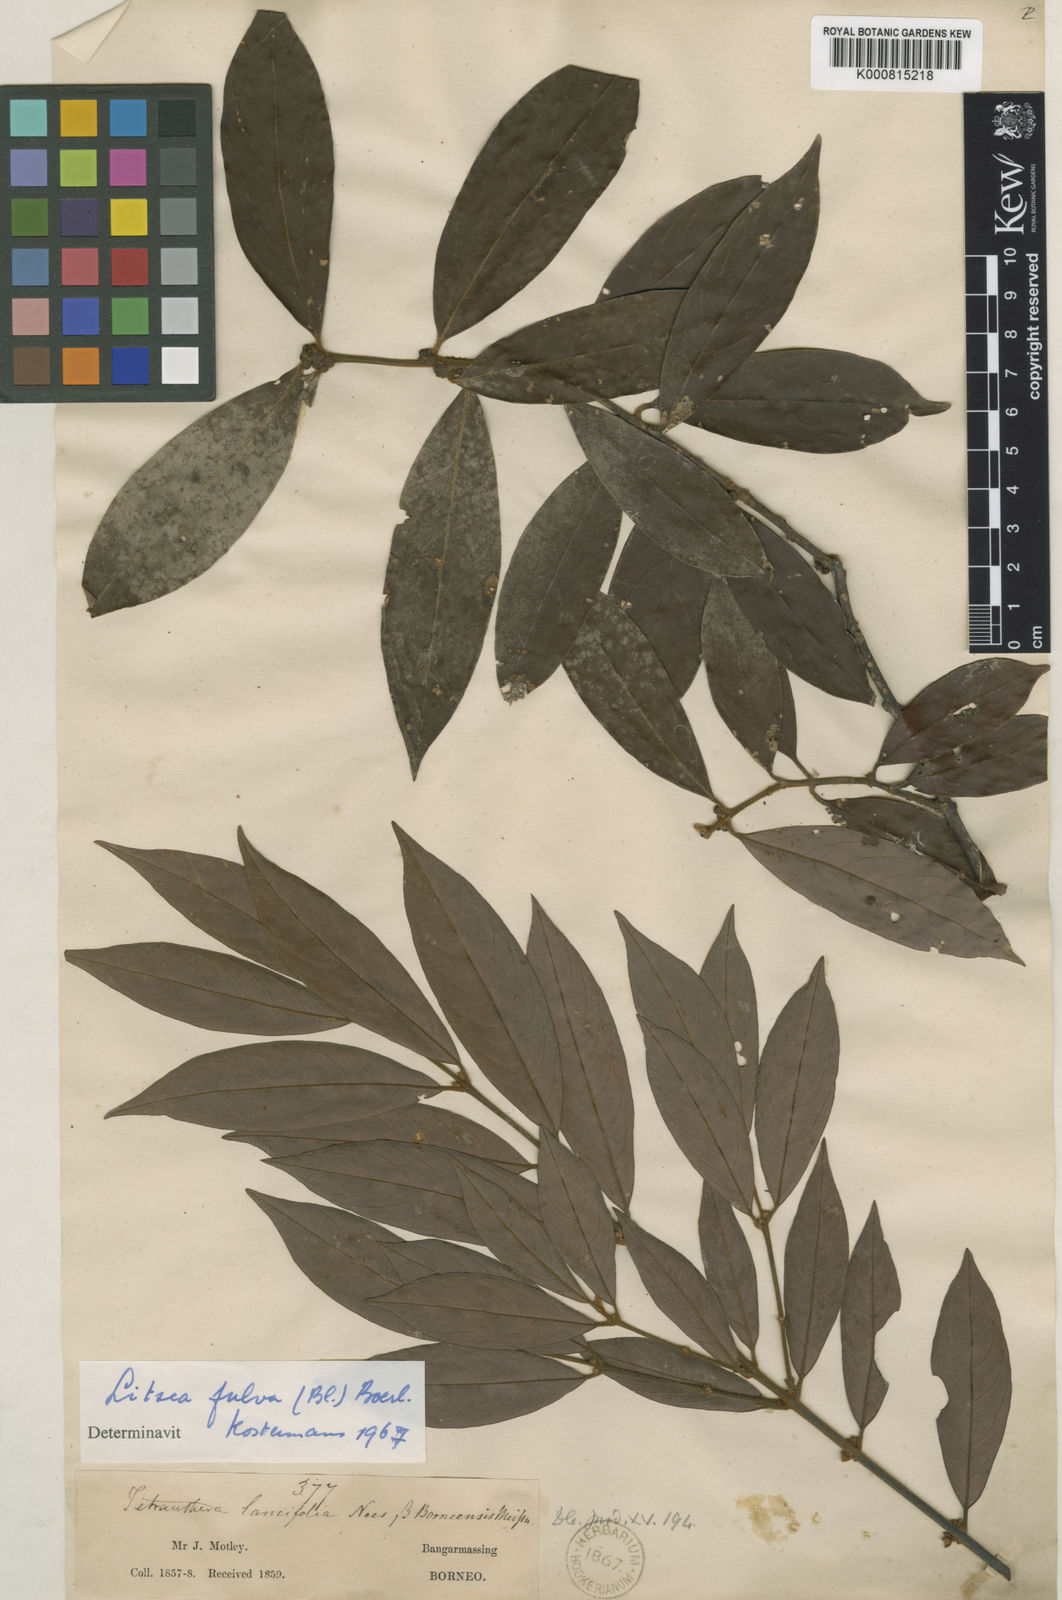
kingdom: Plantae
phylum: Tracheophyta
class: Magnoliopsida
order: Laurales
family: Lauraceae
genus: Litsea
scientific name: Litsea fulva
